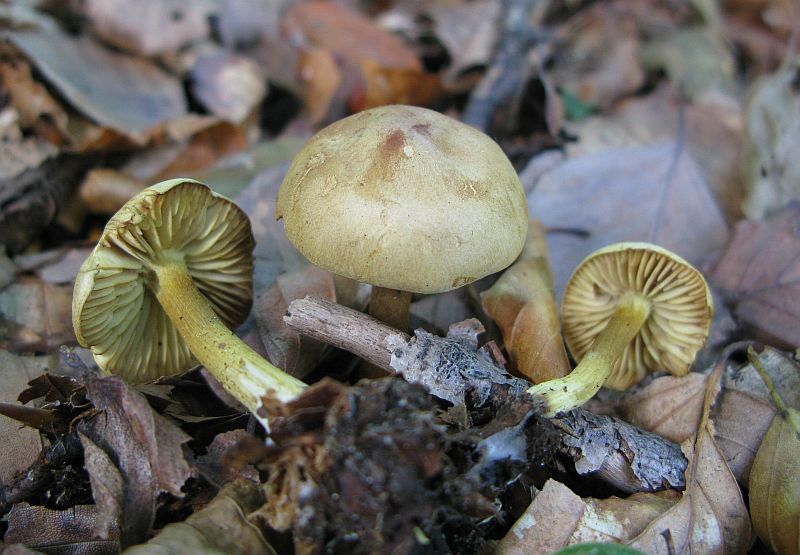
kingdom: Fungi
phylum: Basidiomycota
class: Agaricomycetes
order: Agaricales
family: Tricholomataceae
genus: Tricholoma
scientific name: Tricholoma sulphureum
